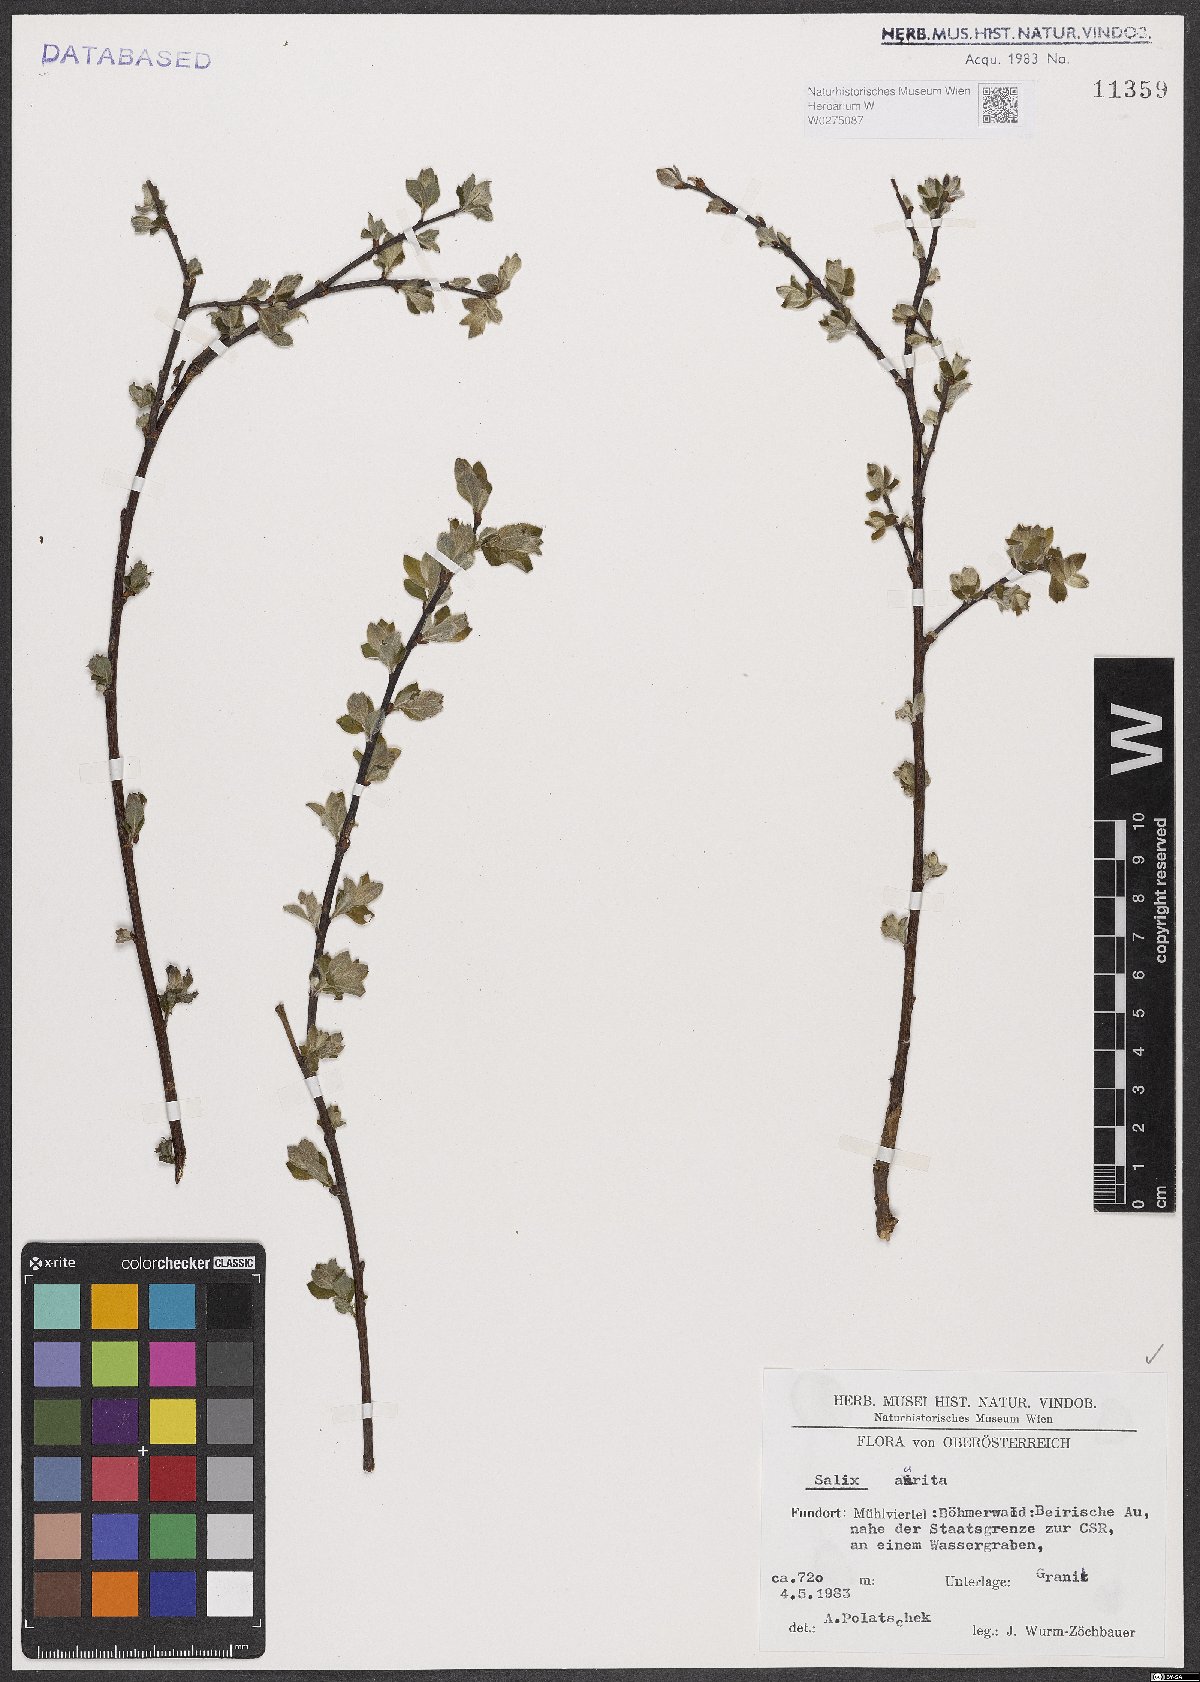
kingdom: Plantae
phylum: Tracheophyta
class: Magnoliopsida
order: Malpighiales
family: Salicaceae
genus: Salix
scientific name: Salix aurita
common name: Eared willow
